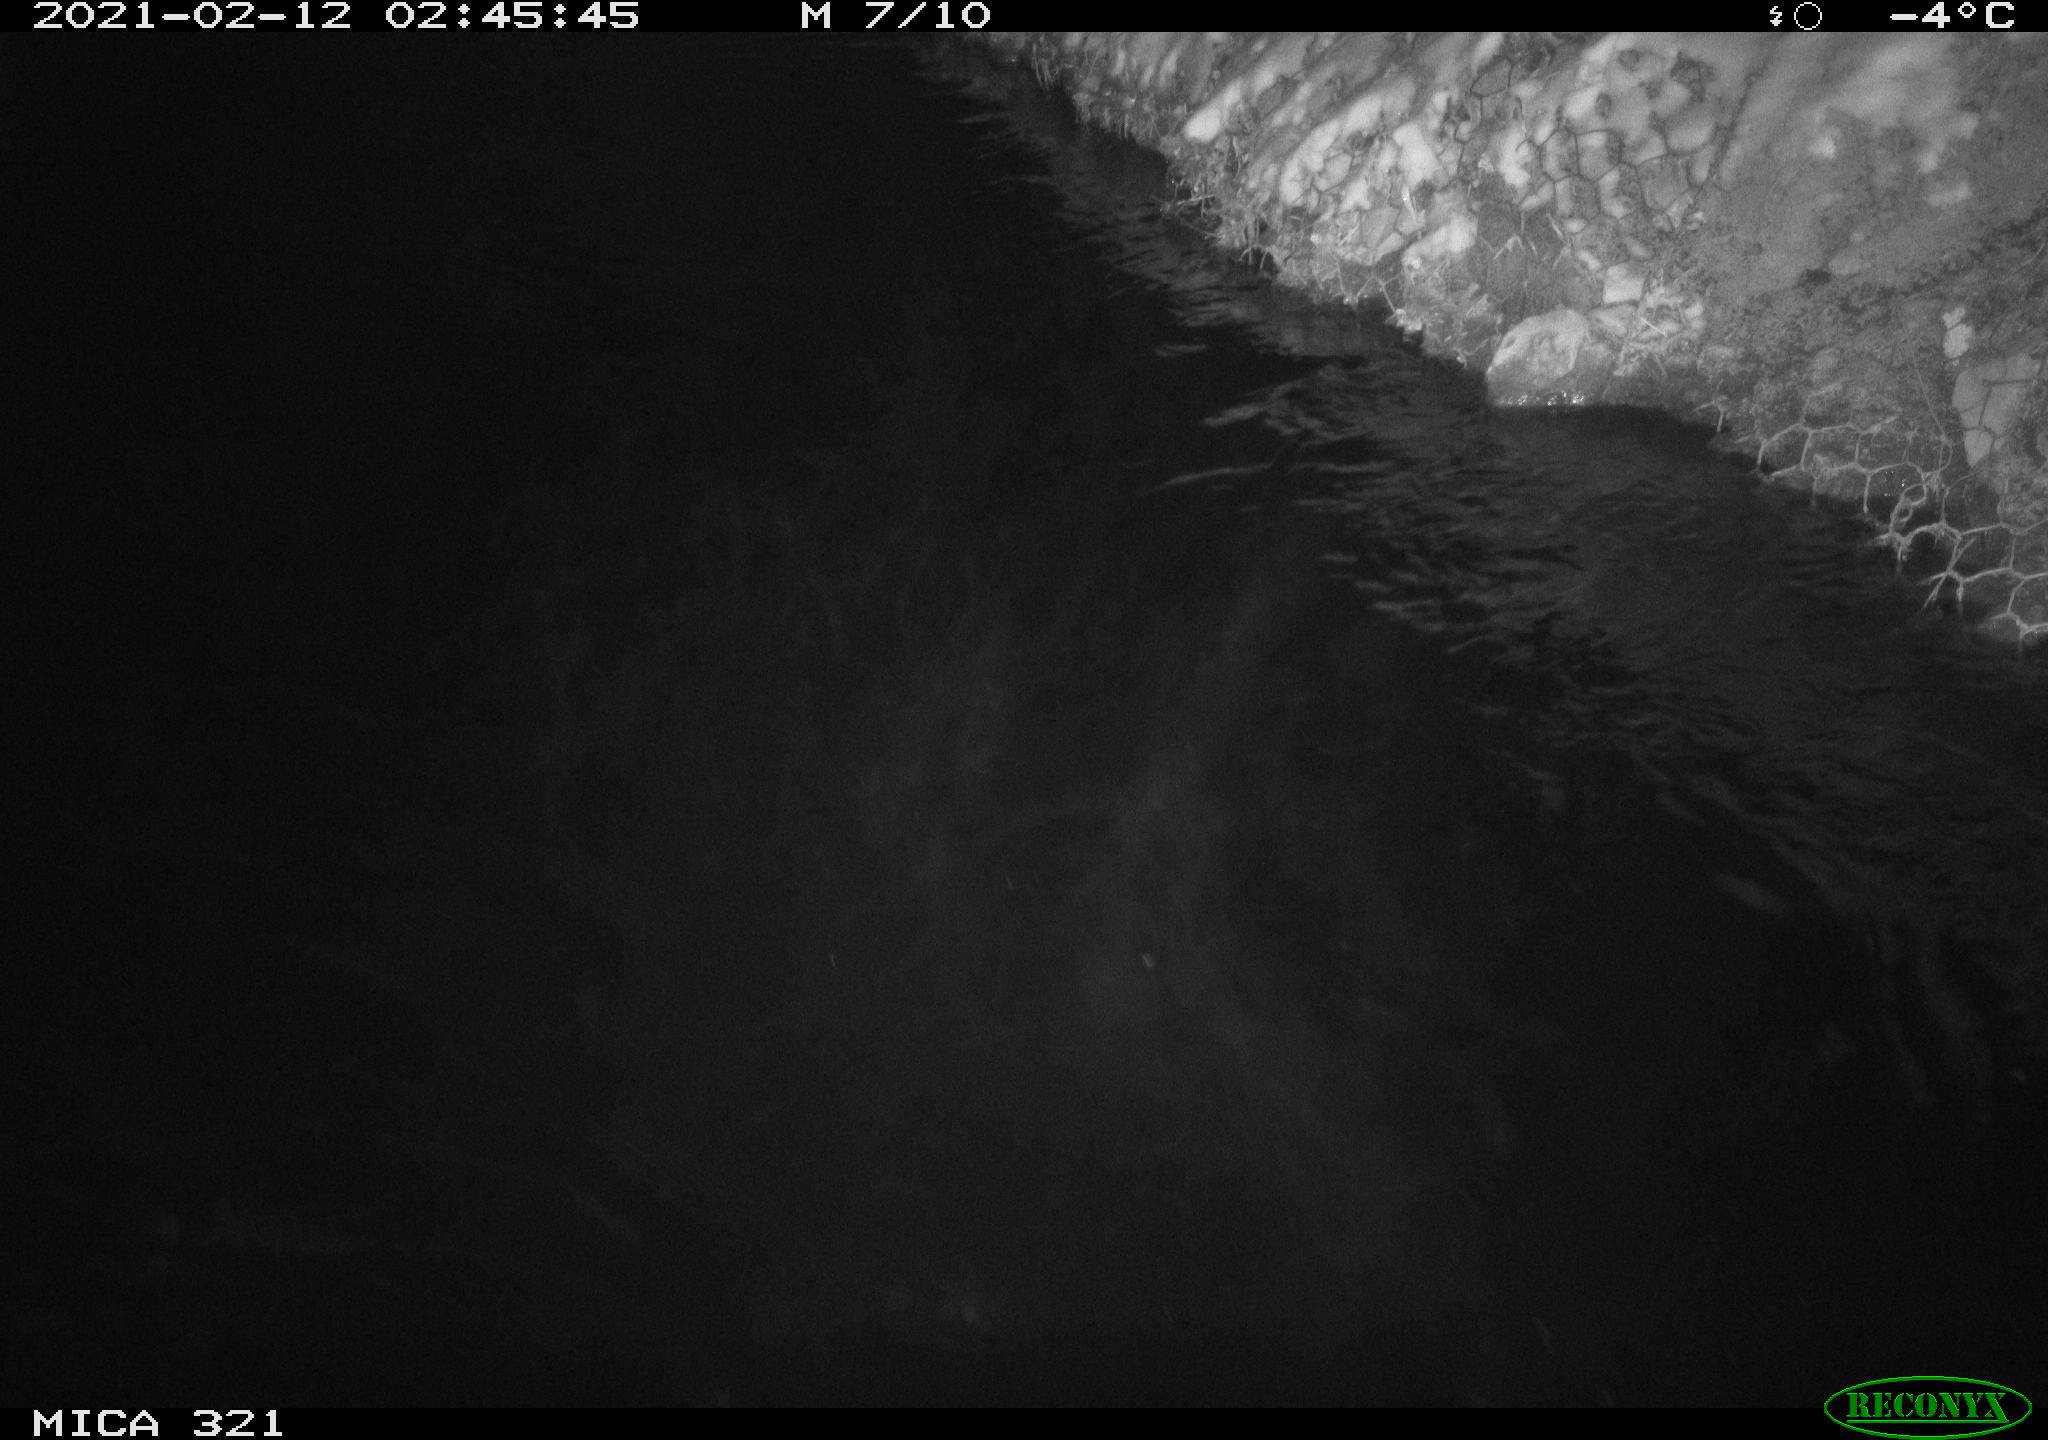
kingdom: Animalia
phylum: Chordata
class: Aves
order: Anseriformes
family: Anatidae
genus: Anas
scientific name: Anas platyrhynchos
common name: Mallard
